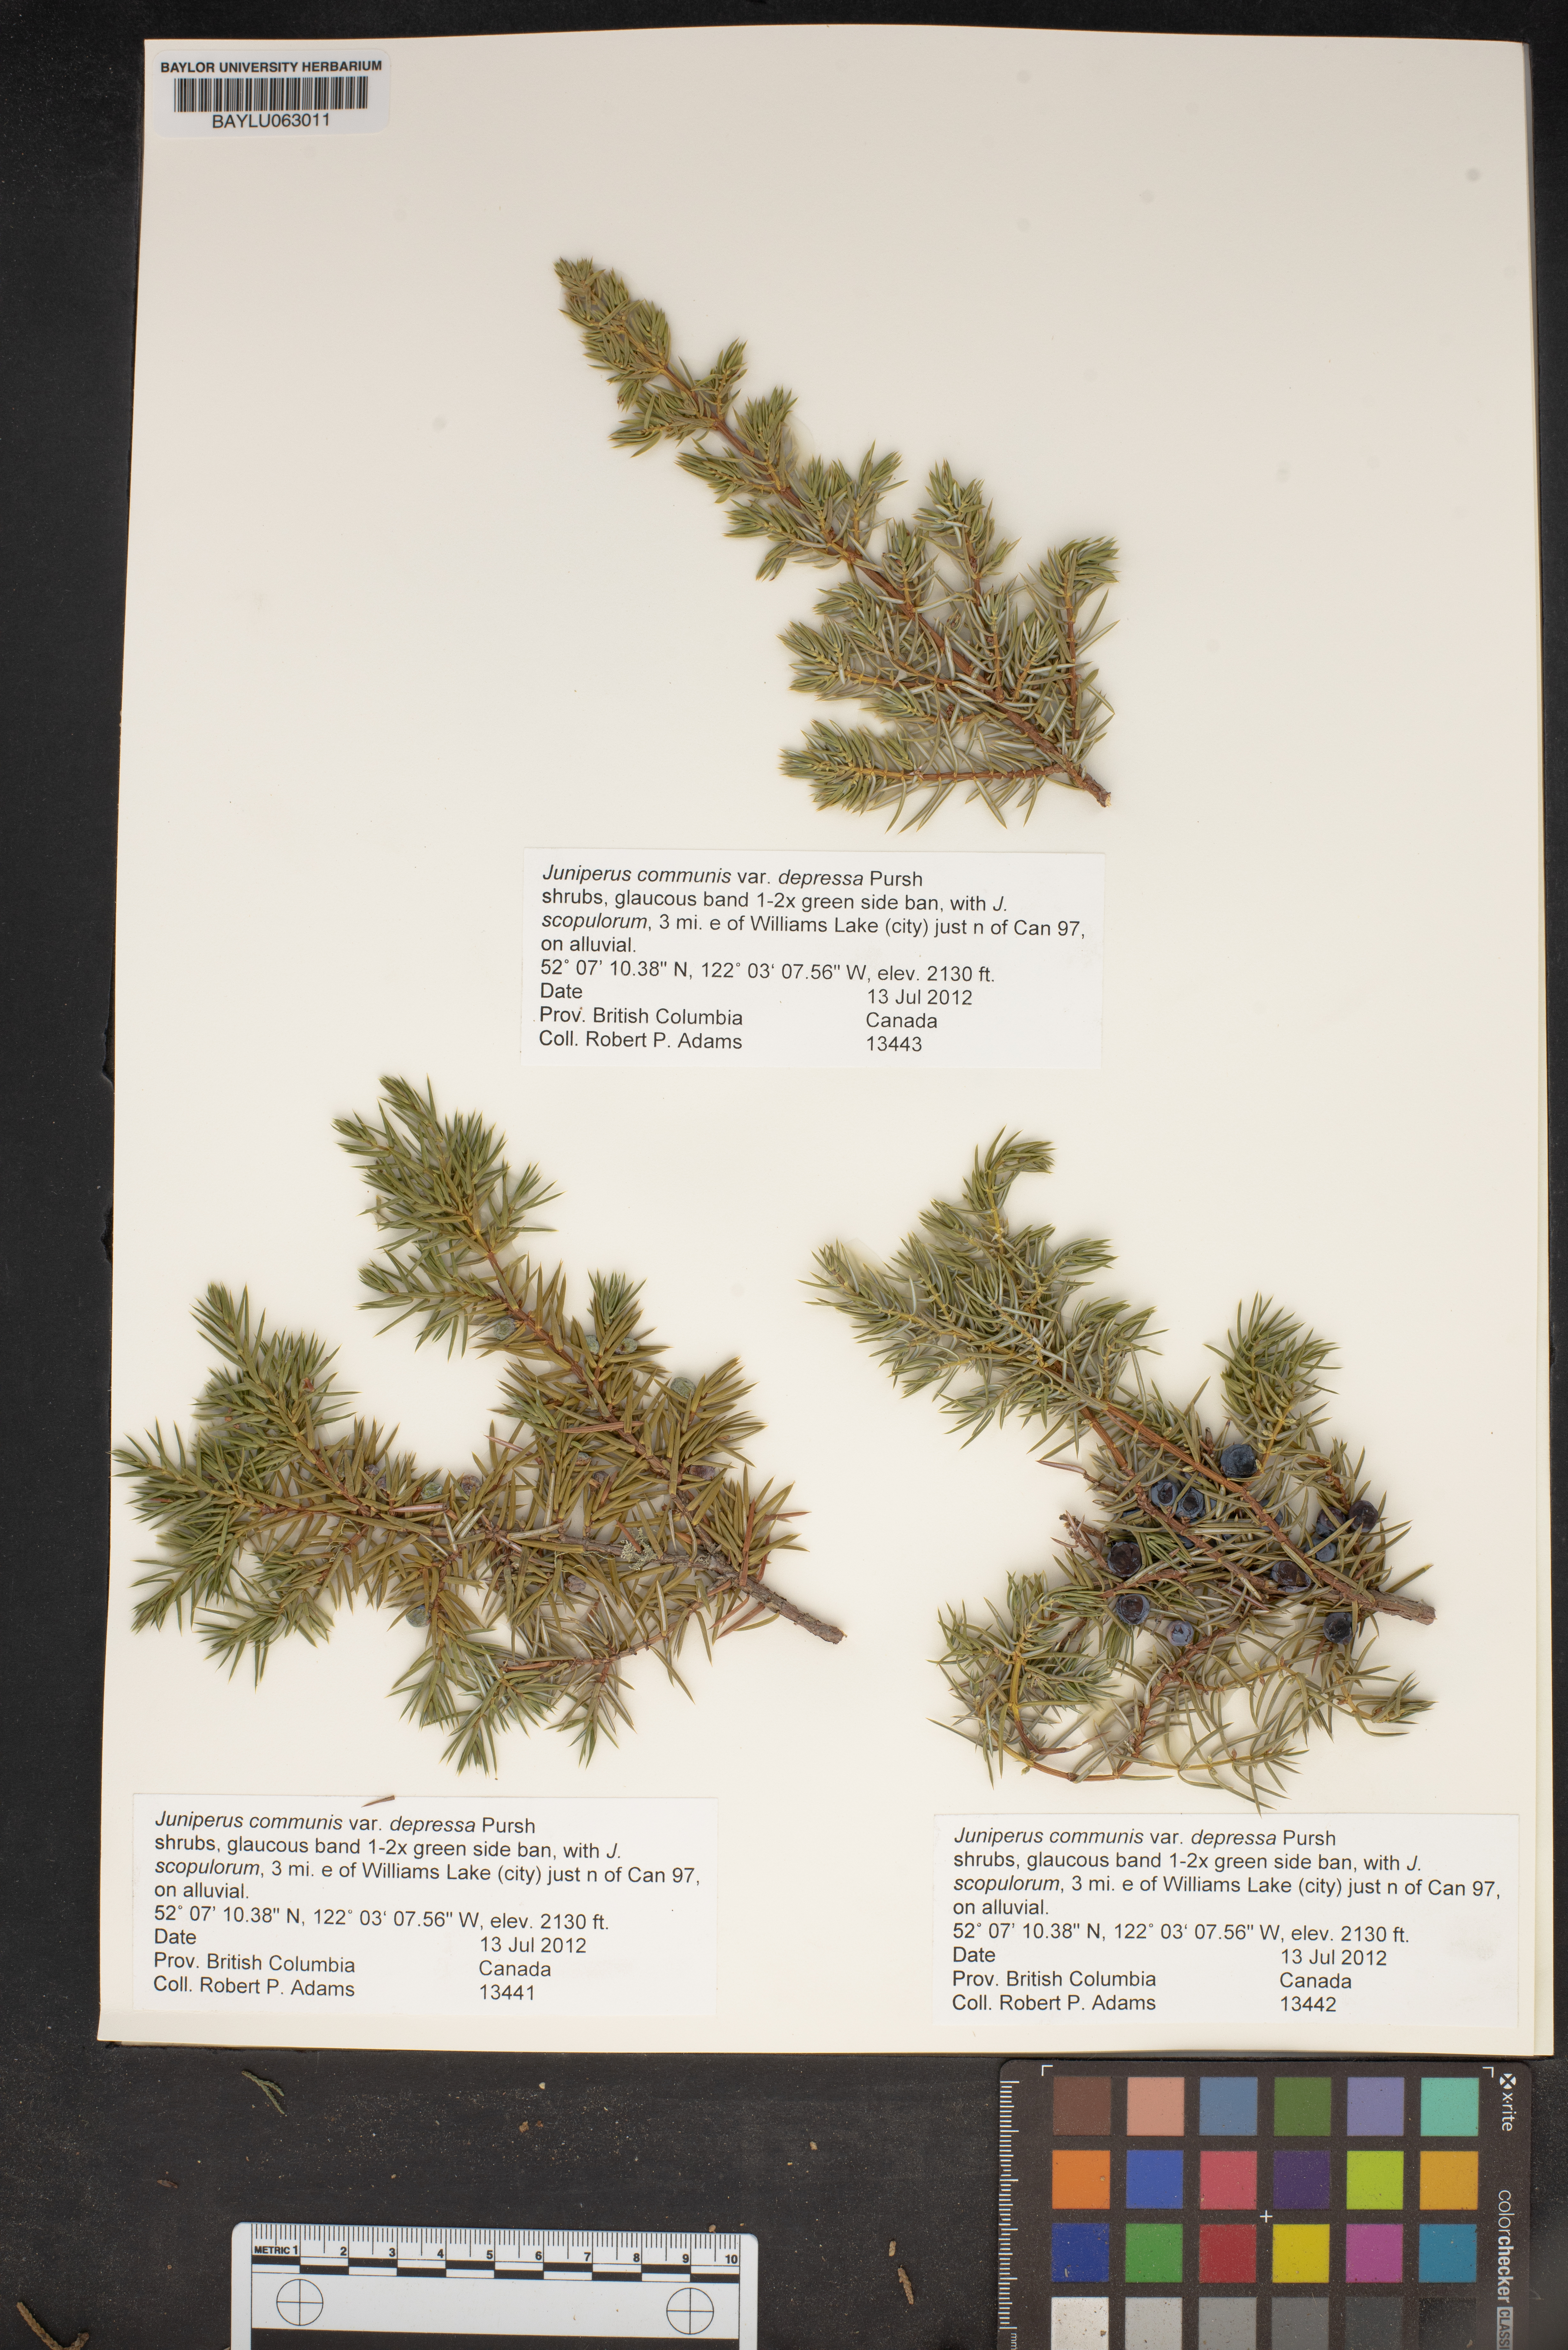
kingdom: Plantae
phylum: Tracheophyta
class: Pinopsida
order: Pinales
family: Cupressaceae
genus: Juniperus
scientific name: Juniperus communis
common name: Common juniper
